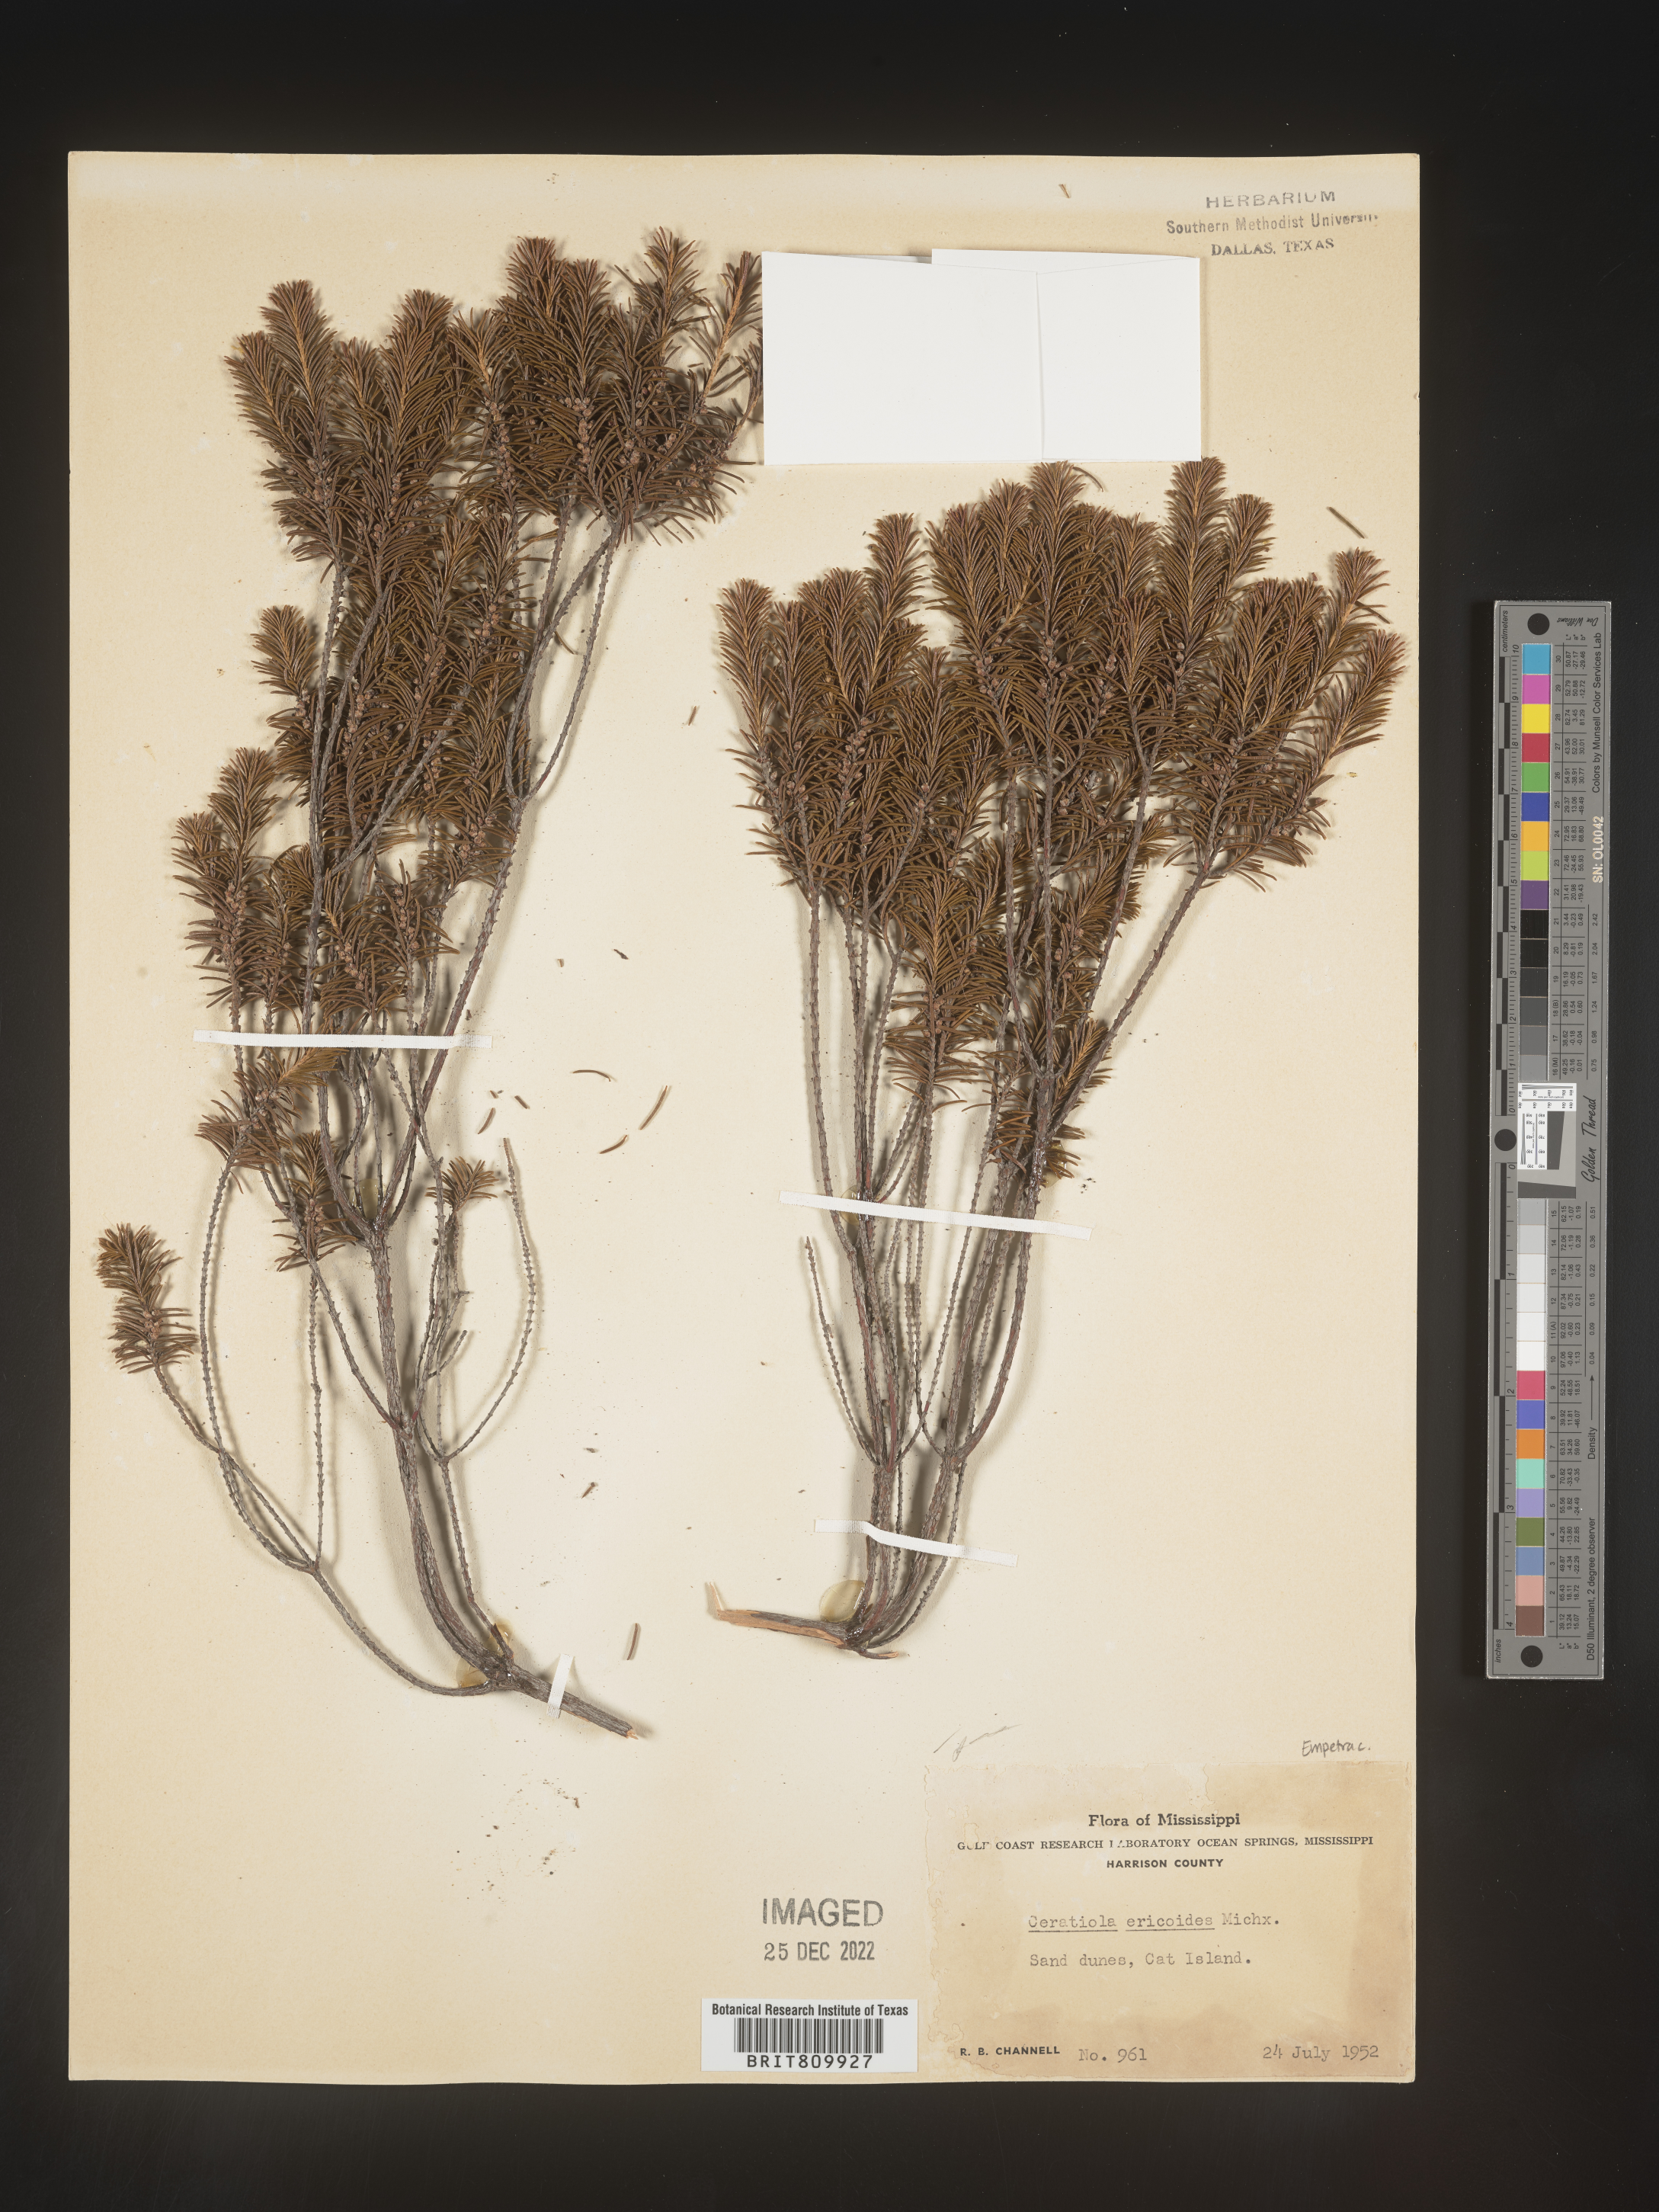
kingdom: Plantae
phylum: Tracheophyta
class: Magnoliopsida
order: Ericales
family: Ericaceae
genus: Ceratiola
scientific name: Ceratiola ericoides
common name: Sandhill-rosemary
